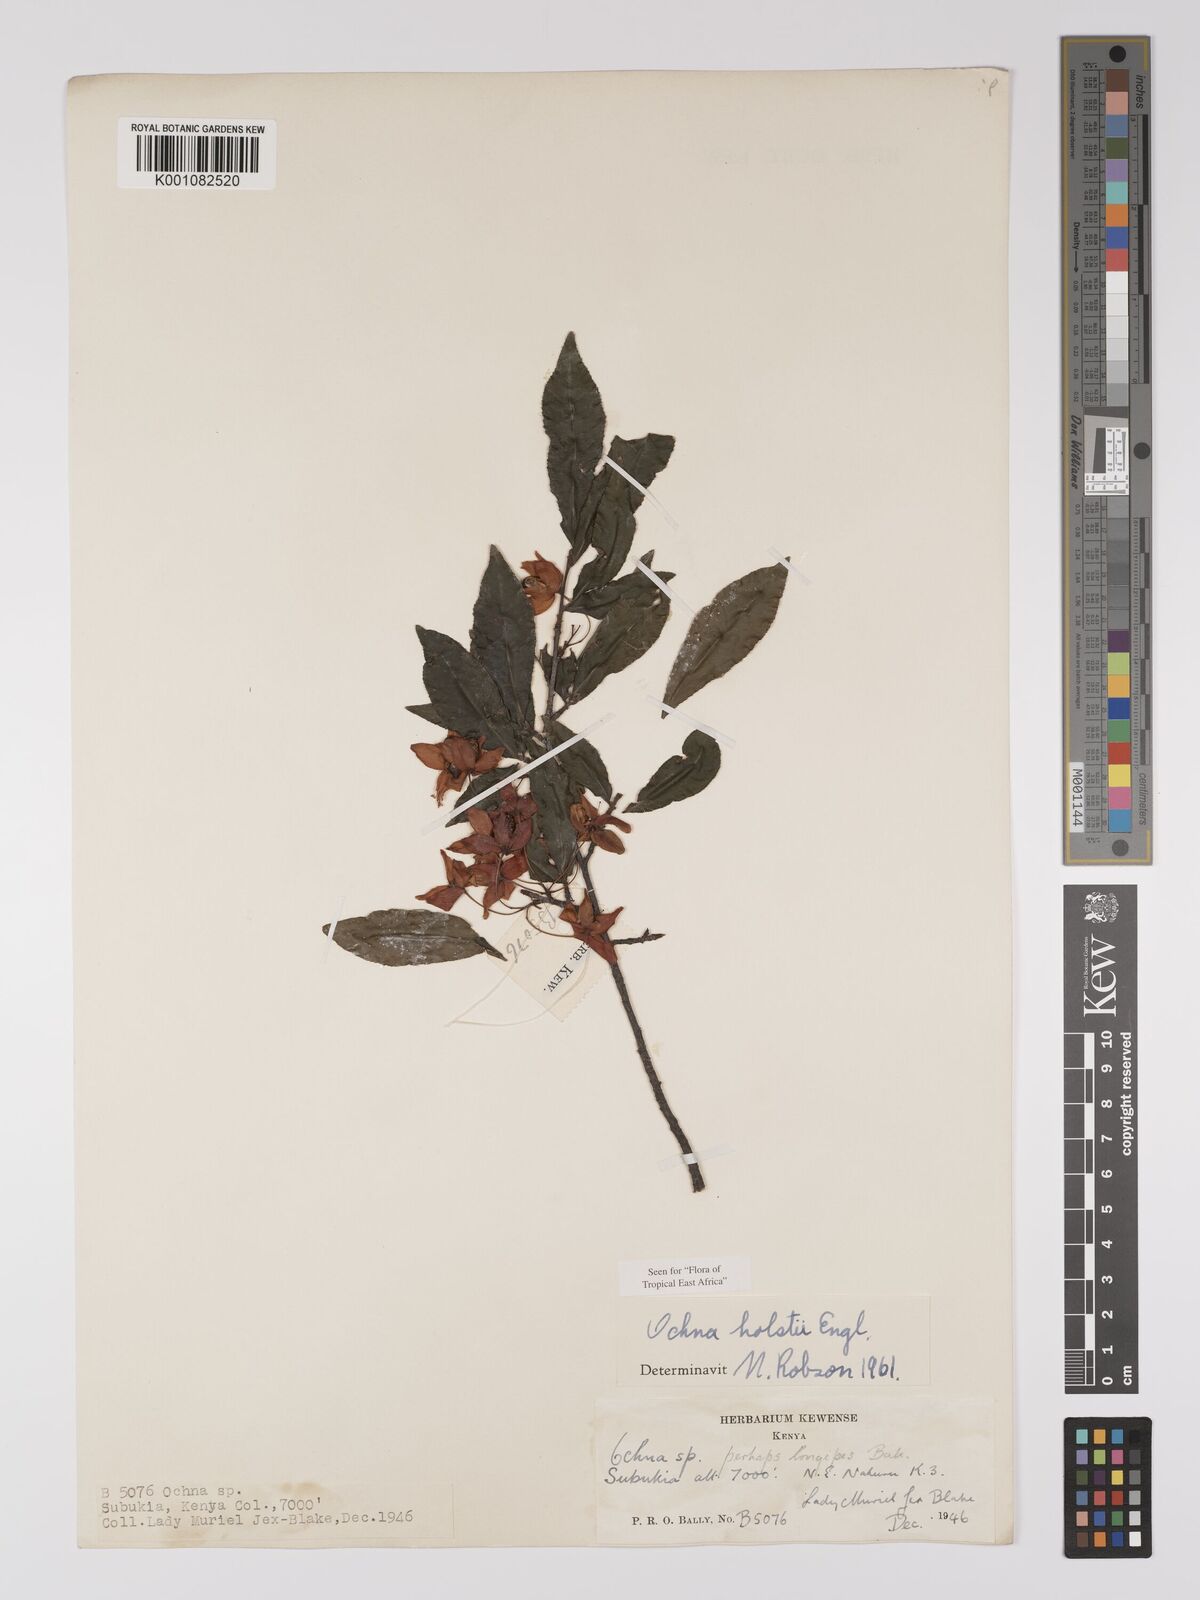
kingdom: Plantae
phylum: Tracheophyta
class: Magnoliopsida
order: Malpighiales
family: Ochnaceae
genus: Ochna
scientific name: Ochna holstii
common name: Red ironwood
